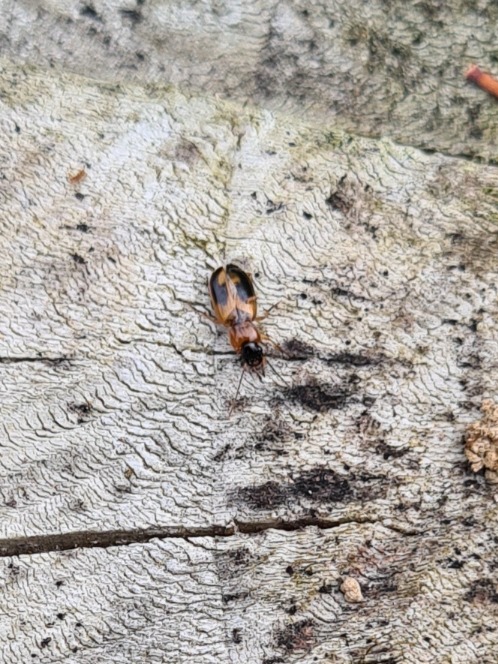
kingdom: Animalia
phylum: Arthropoda
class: Insecta
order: Coleoptera
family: Carabidae
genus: Badister
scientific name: Badister bullatus
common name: Almindelig sumpløber
